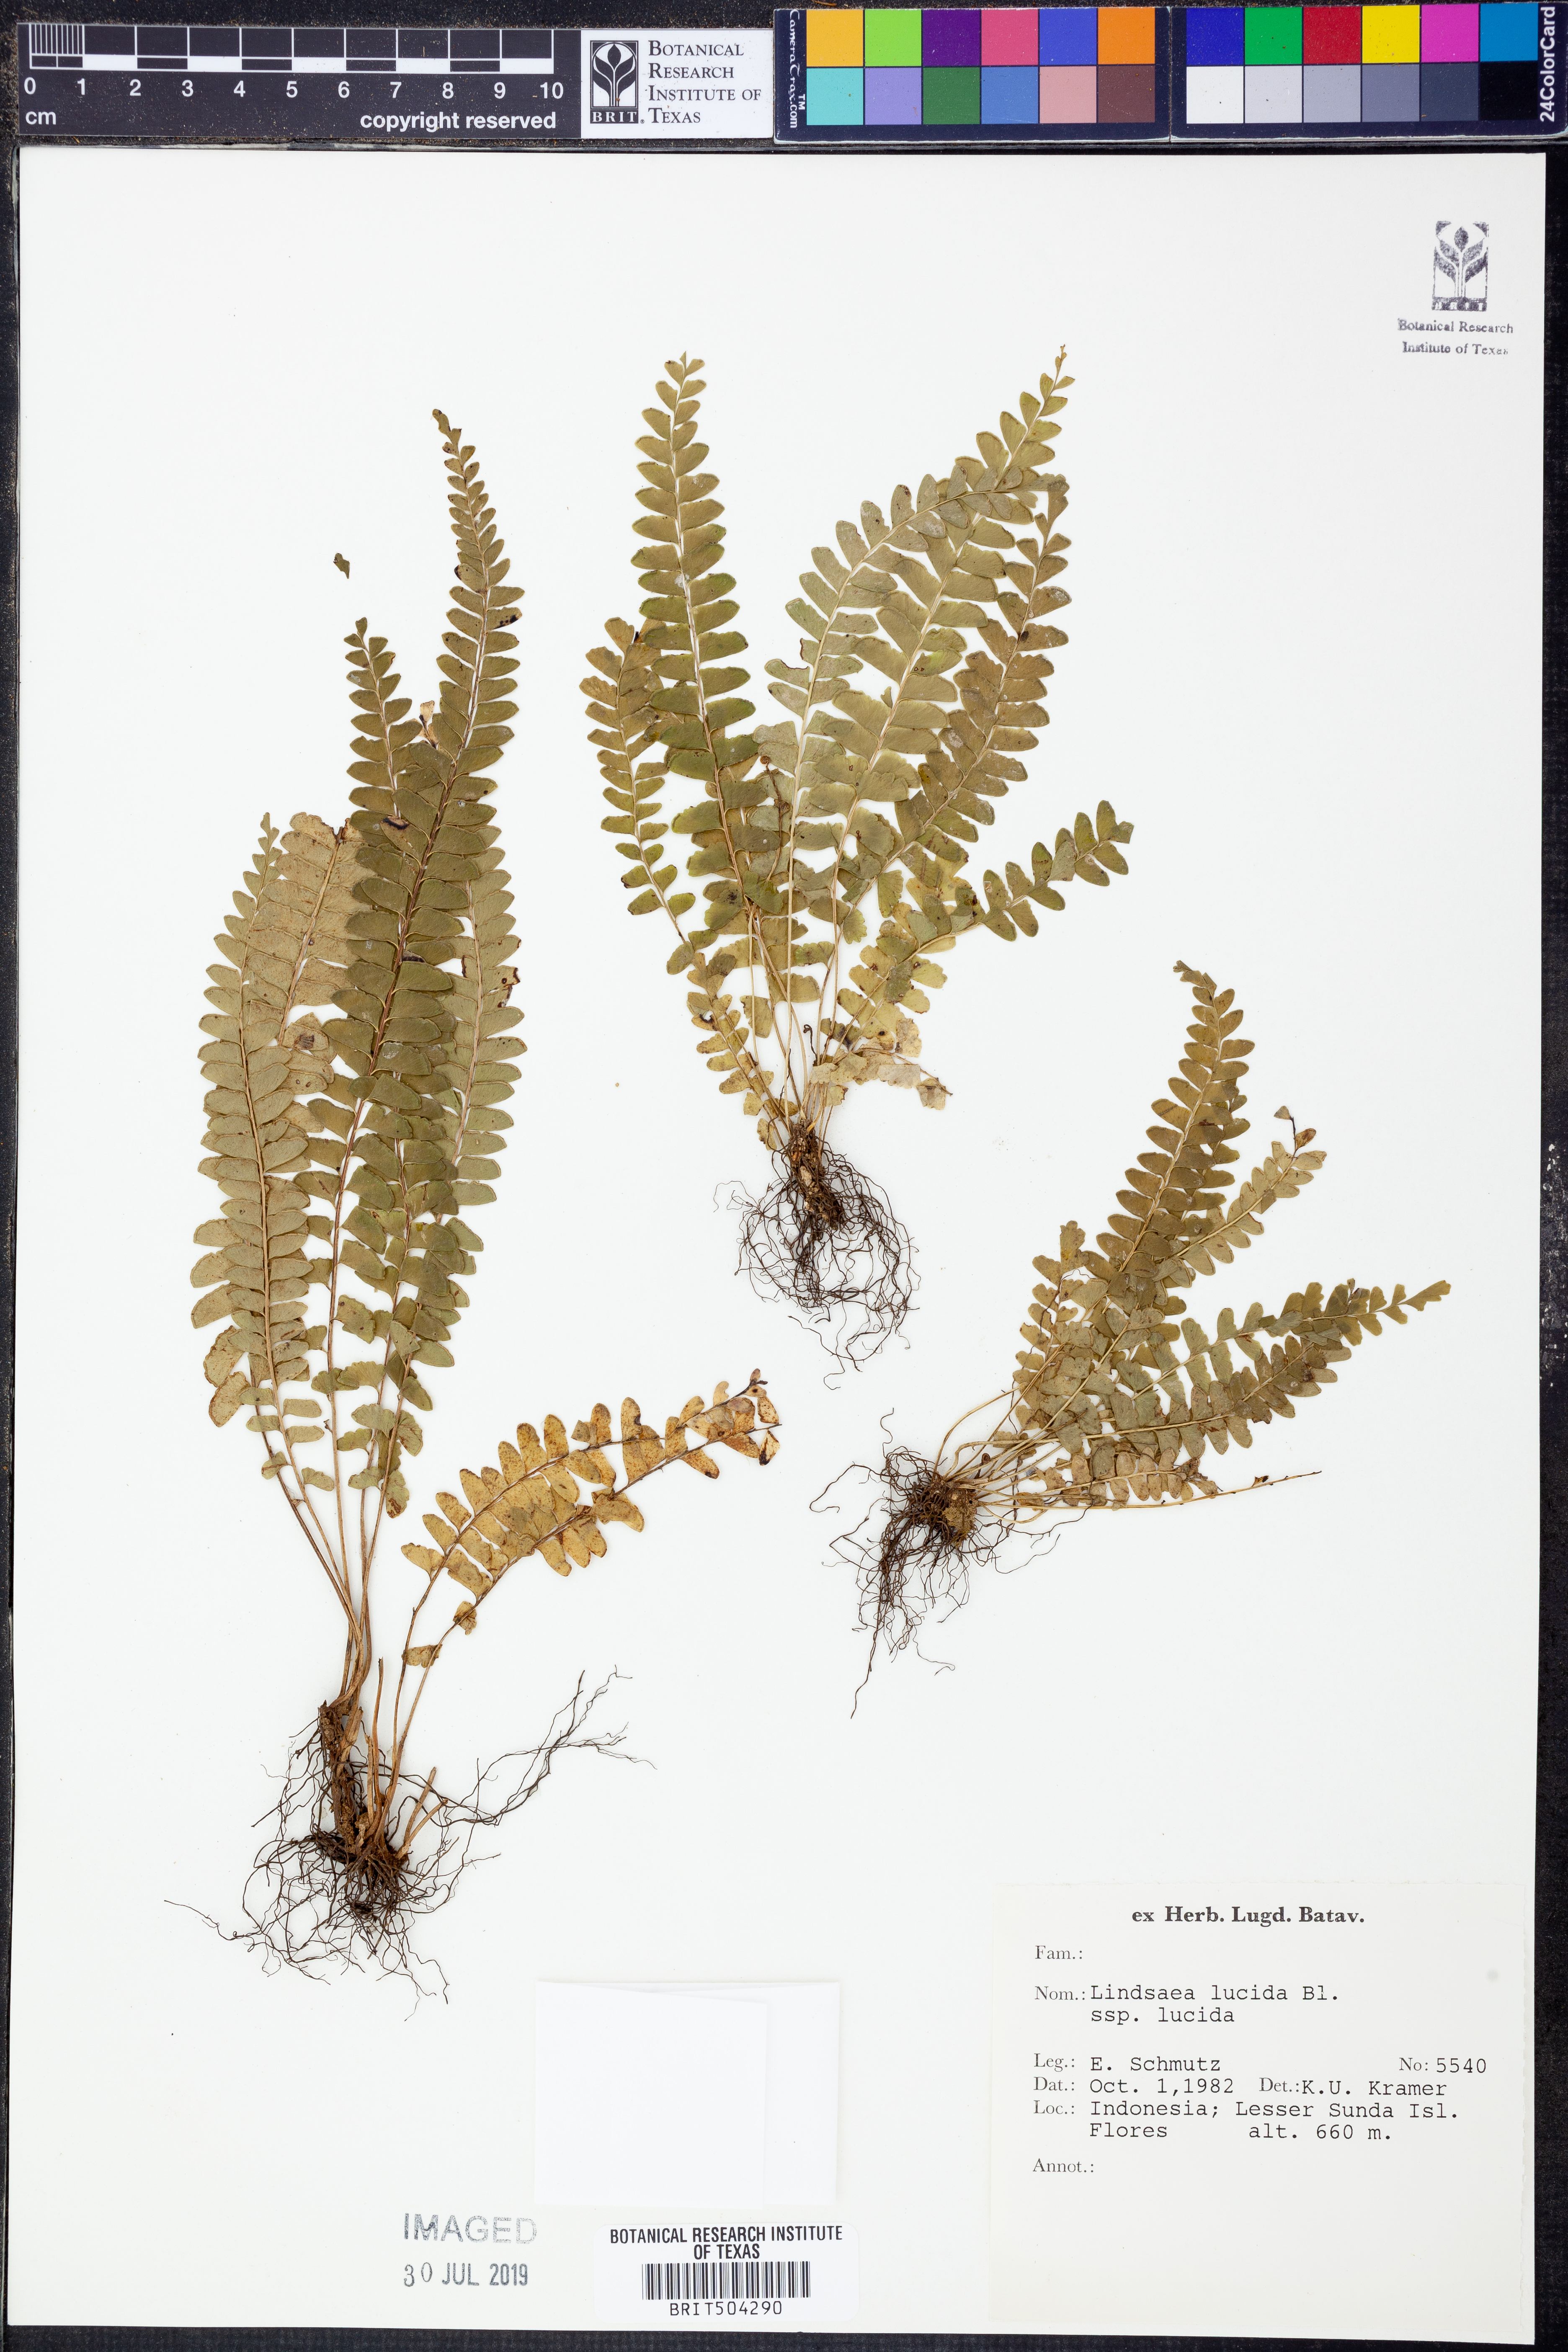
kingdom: Plantae
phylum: Tracheophyta
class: Polypodiopsida
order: Polypodiales
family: Lindsaeaceae
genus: Lindsaea
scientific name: Lindsaea lucida
